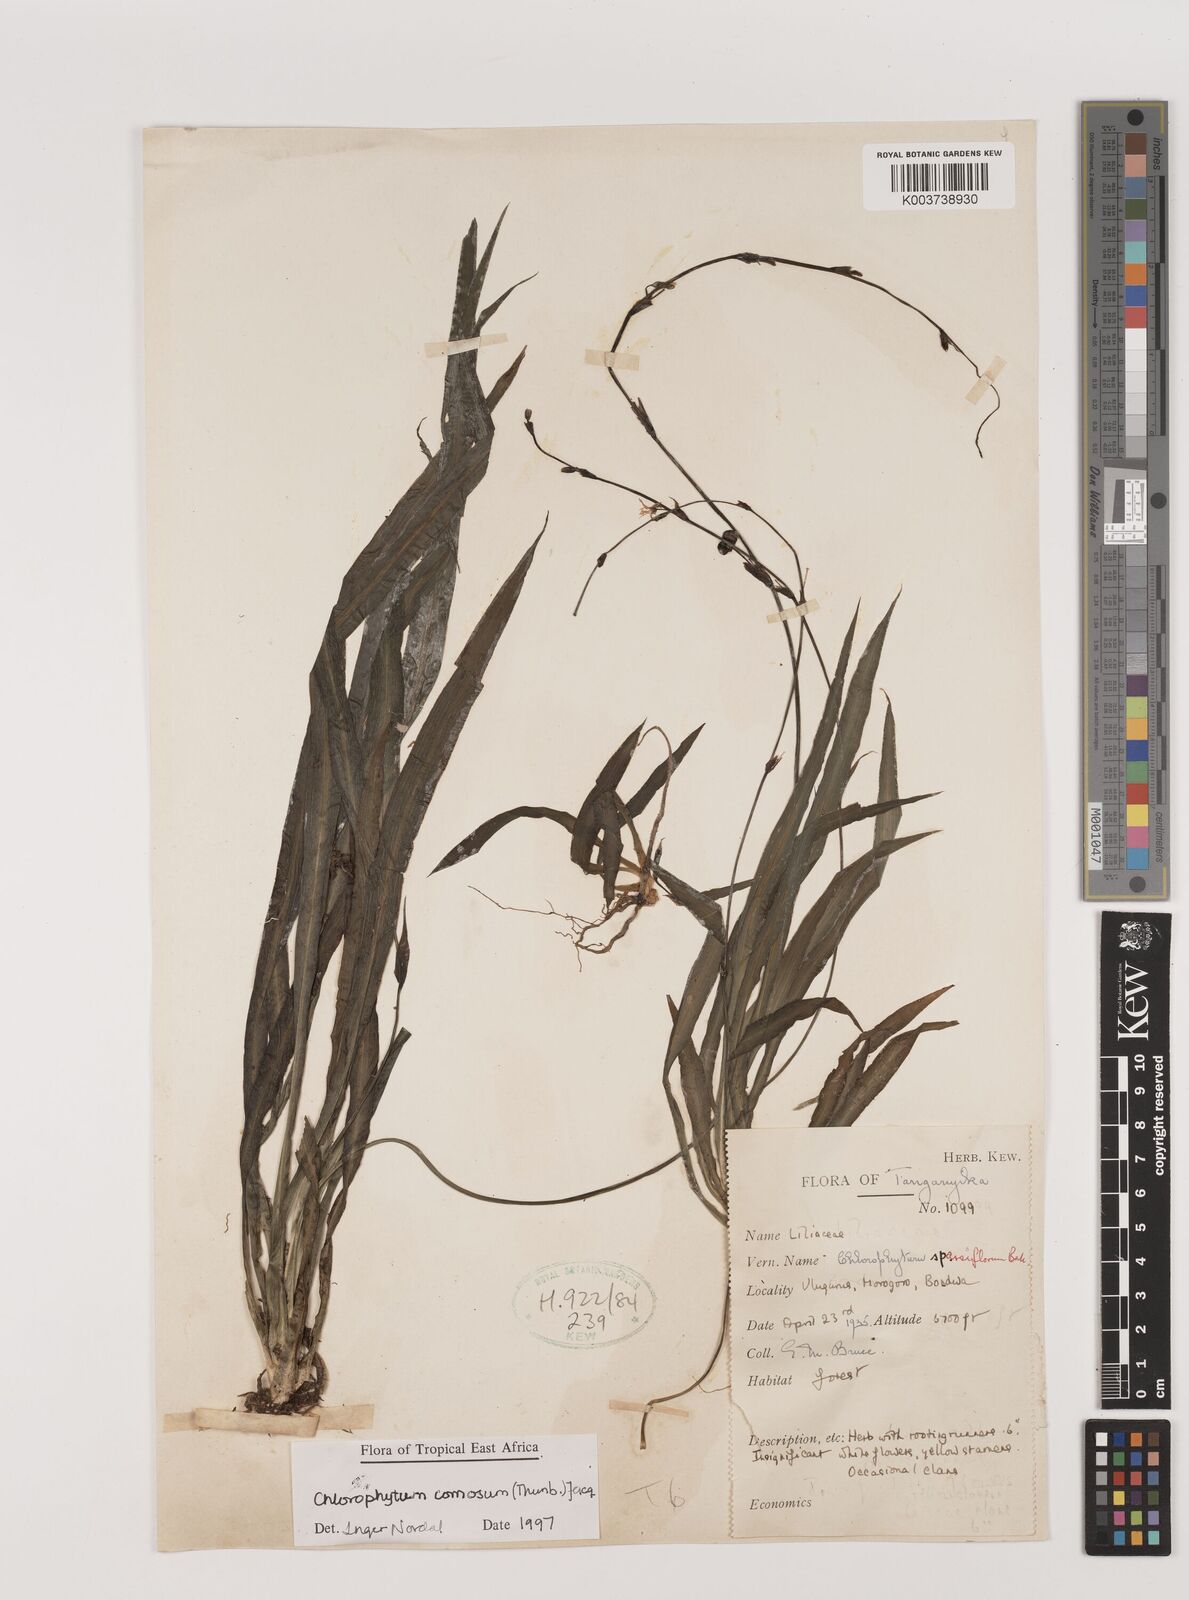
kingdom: Plantae
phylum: Tracheophyta
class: Liliopsida
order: Asparagales
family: Asparagaceae
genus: Chlorophytum
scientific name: Chlorophytum comosum
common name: Spider plant
